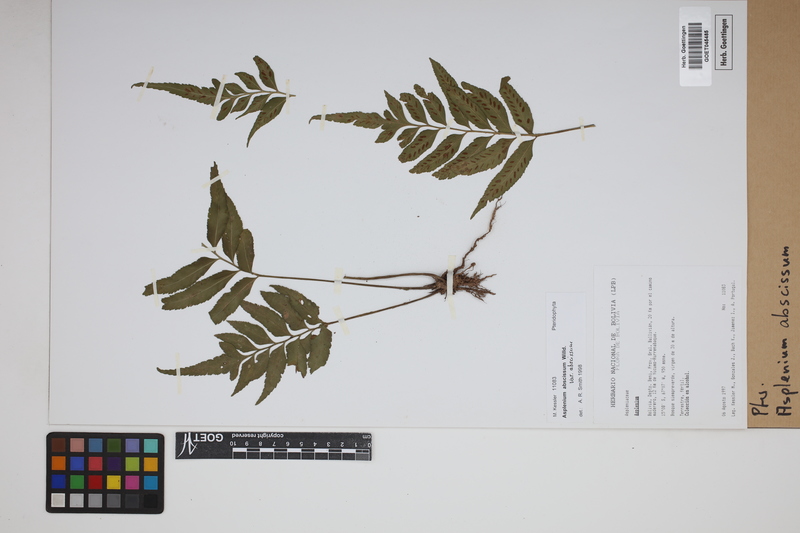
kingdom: Plantae
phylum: Tracheophyta
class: Polypodiopsida
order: Polypodiales
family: Aspleniaceae
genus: Asplenium
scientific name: Asplenium abscissum
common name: Cutleaf spleenwort
